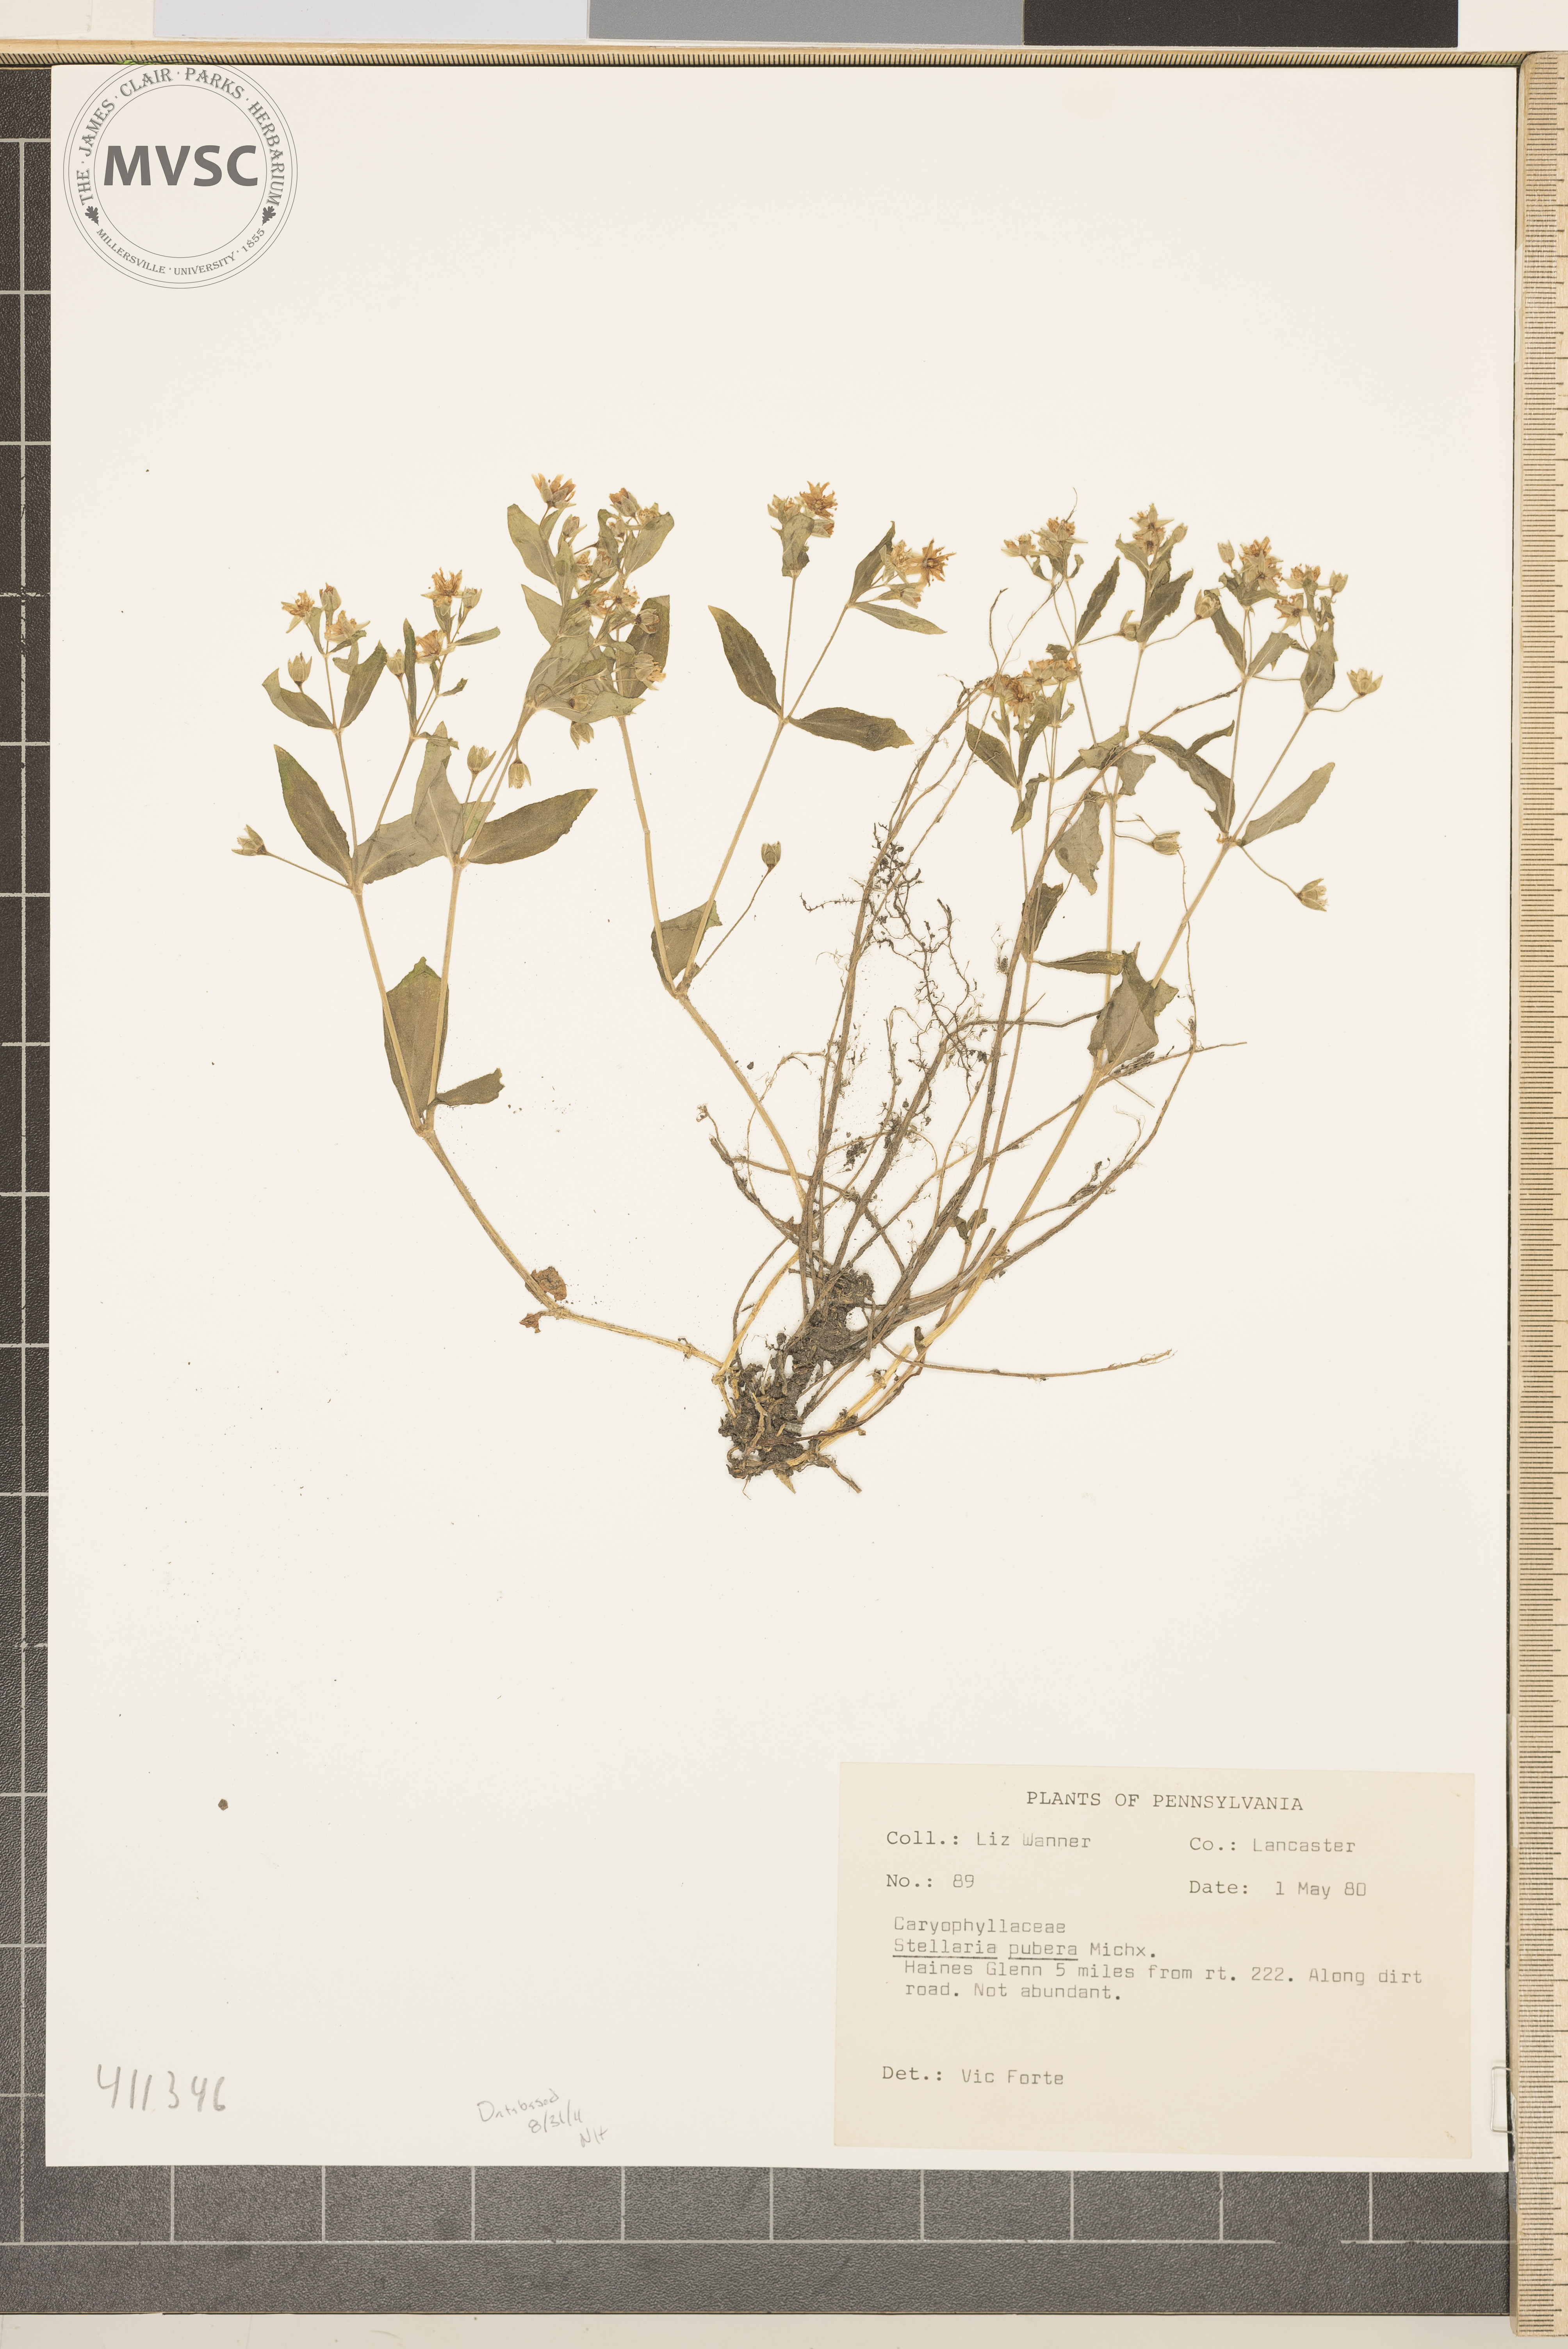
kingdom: Plantae
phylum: Tracheophyta
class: Magnoliopsida
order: Caryophyllales
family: Caryophyllaceae
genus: Stellaria
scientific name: Stellaria pubera
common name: Star chickweed
